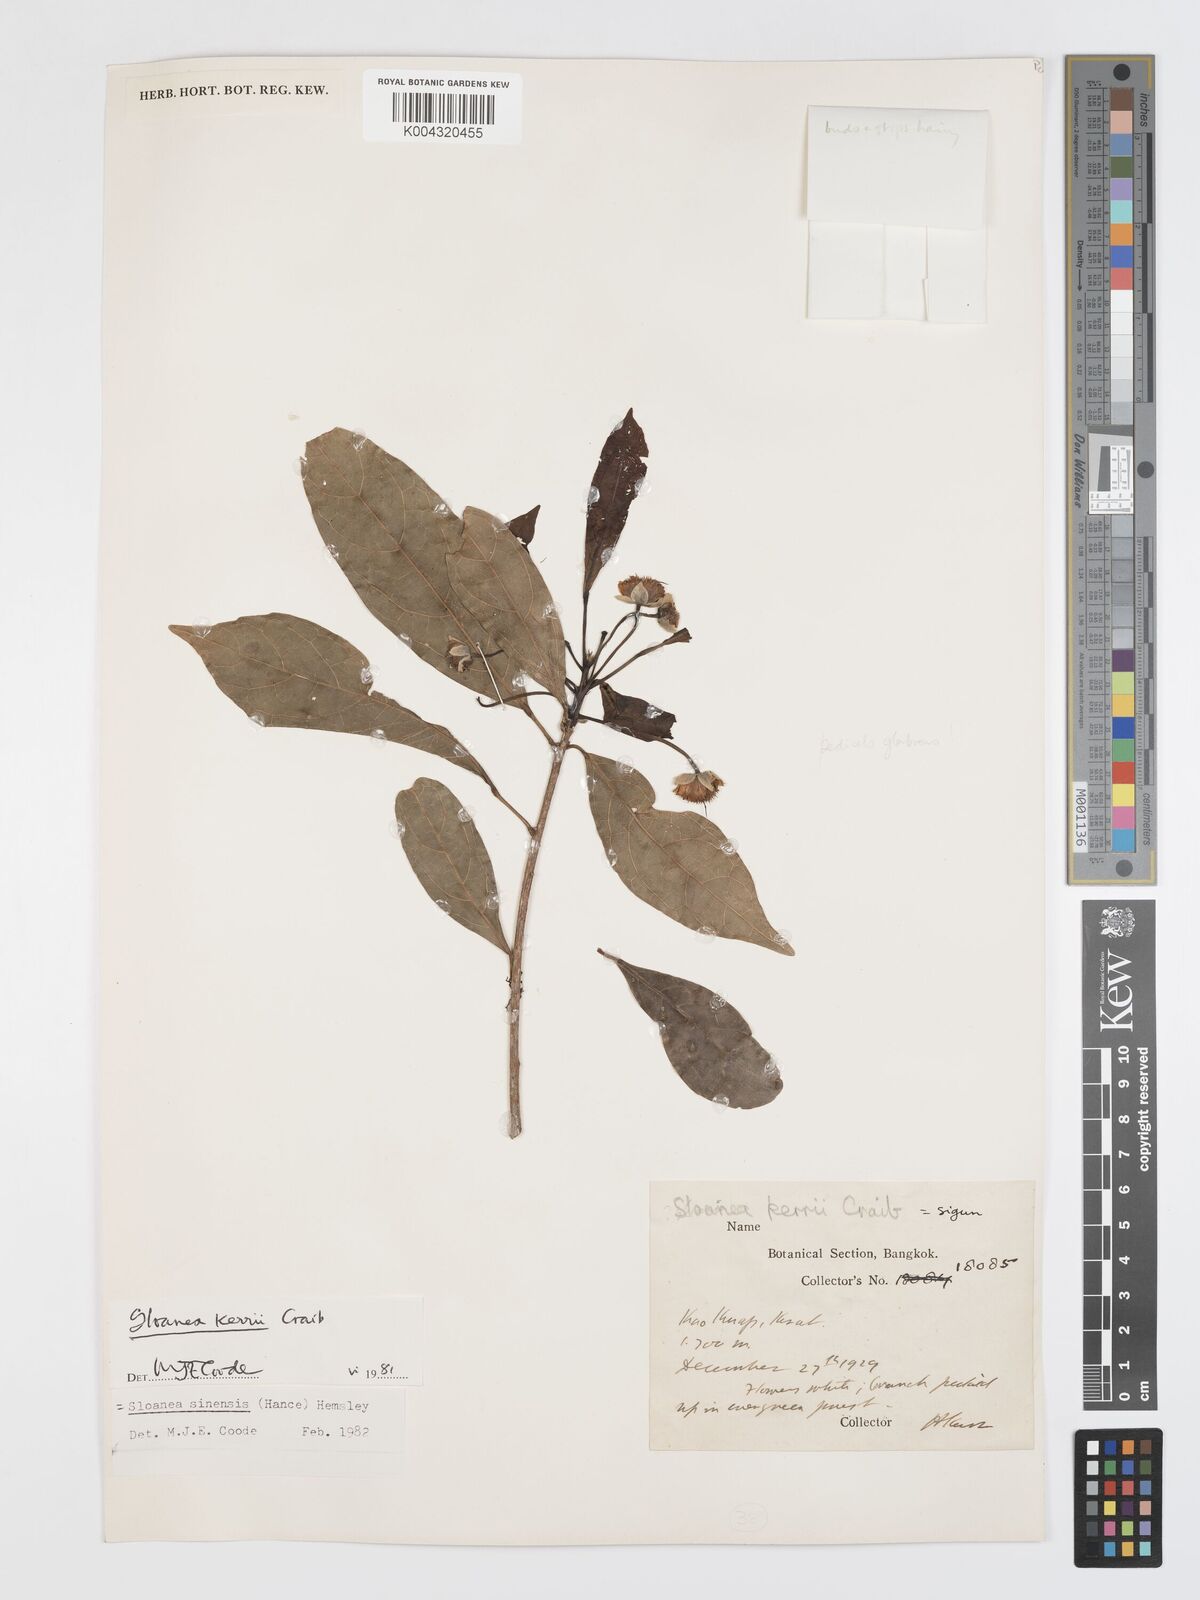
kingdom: Plantae
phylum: Tracheophyta
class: Magnoliopsida
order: Oxalidales
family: Elaeocarpaceae
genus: Sloanea
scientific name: Sloanea sinensis
